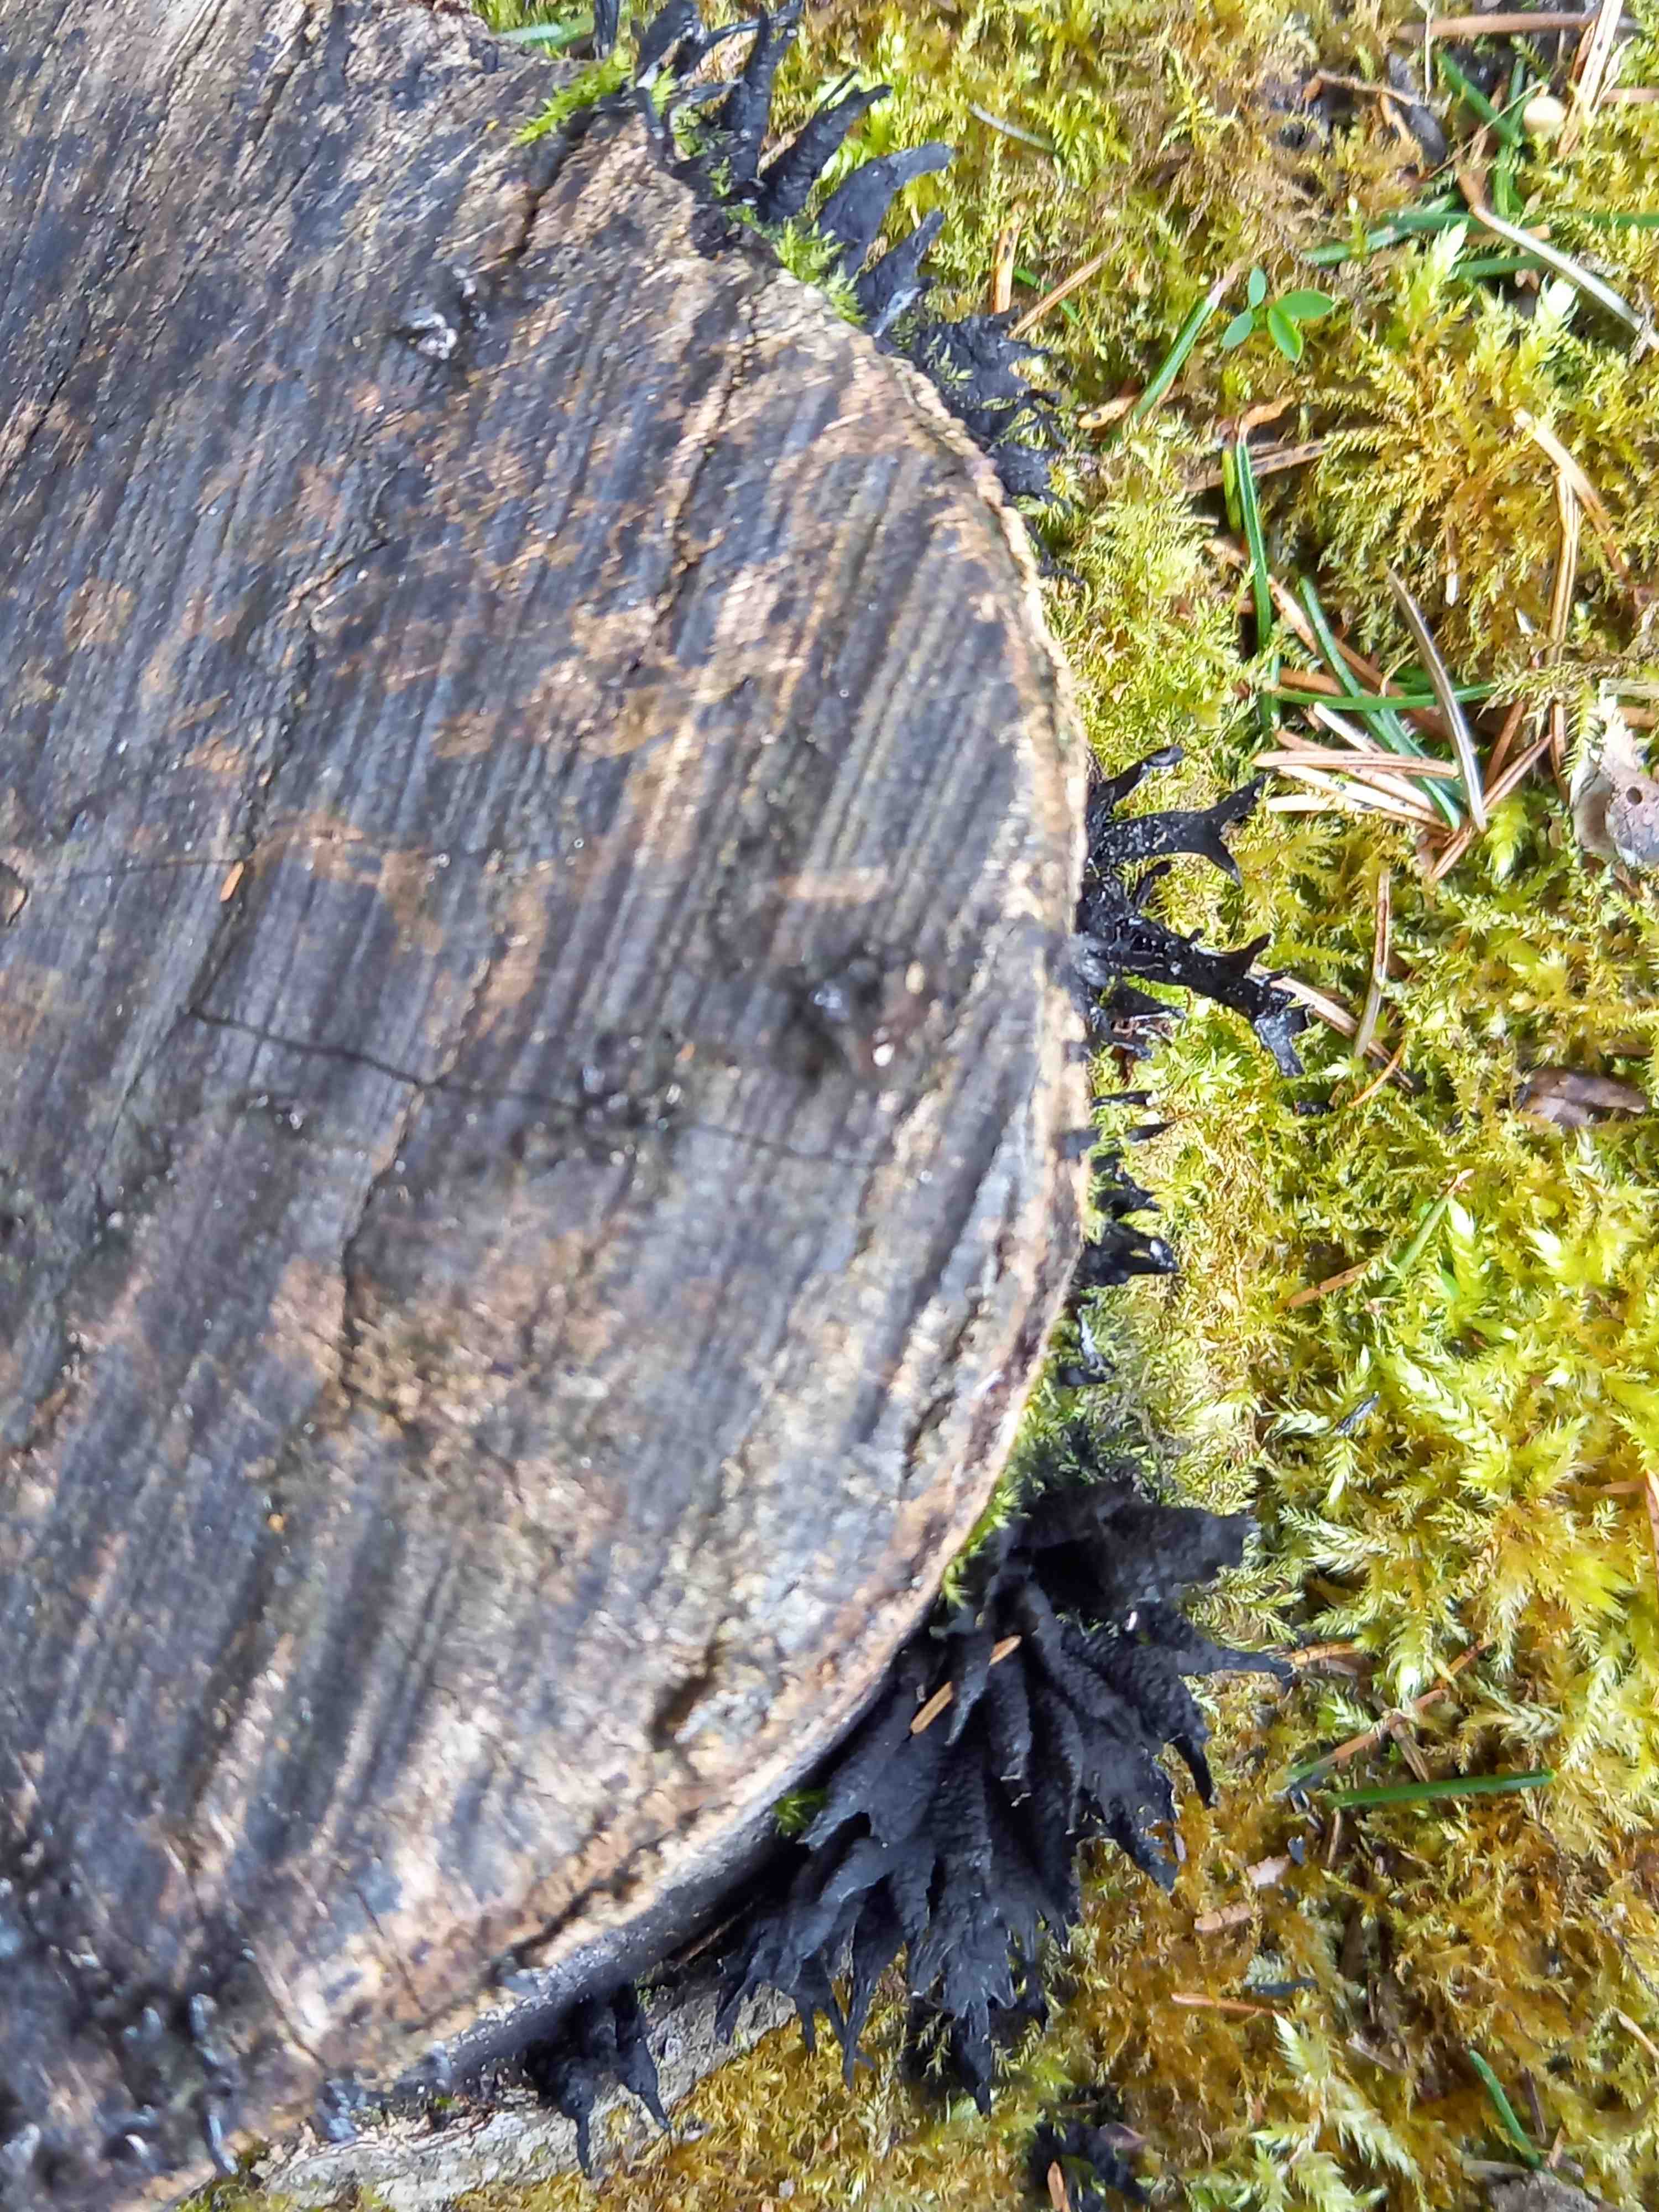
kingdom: Fungi
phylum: Ascomycota
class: Sordariomycetes
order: Xylariales
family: Xylariaceae
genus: Xylaria
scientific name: Xylaria hypoxylon
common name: grenet stødsvamp
